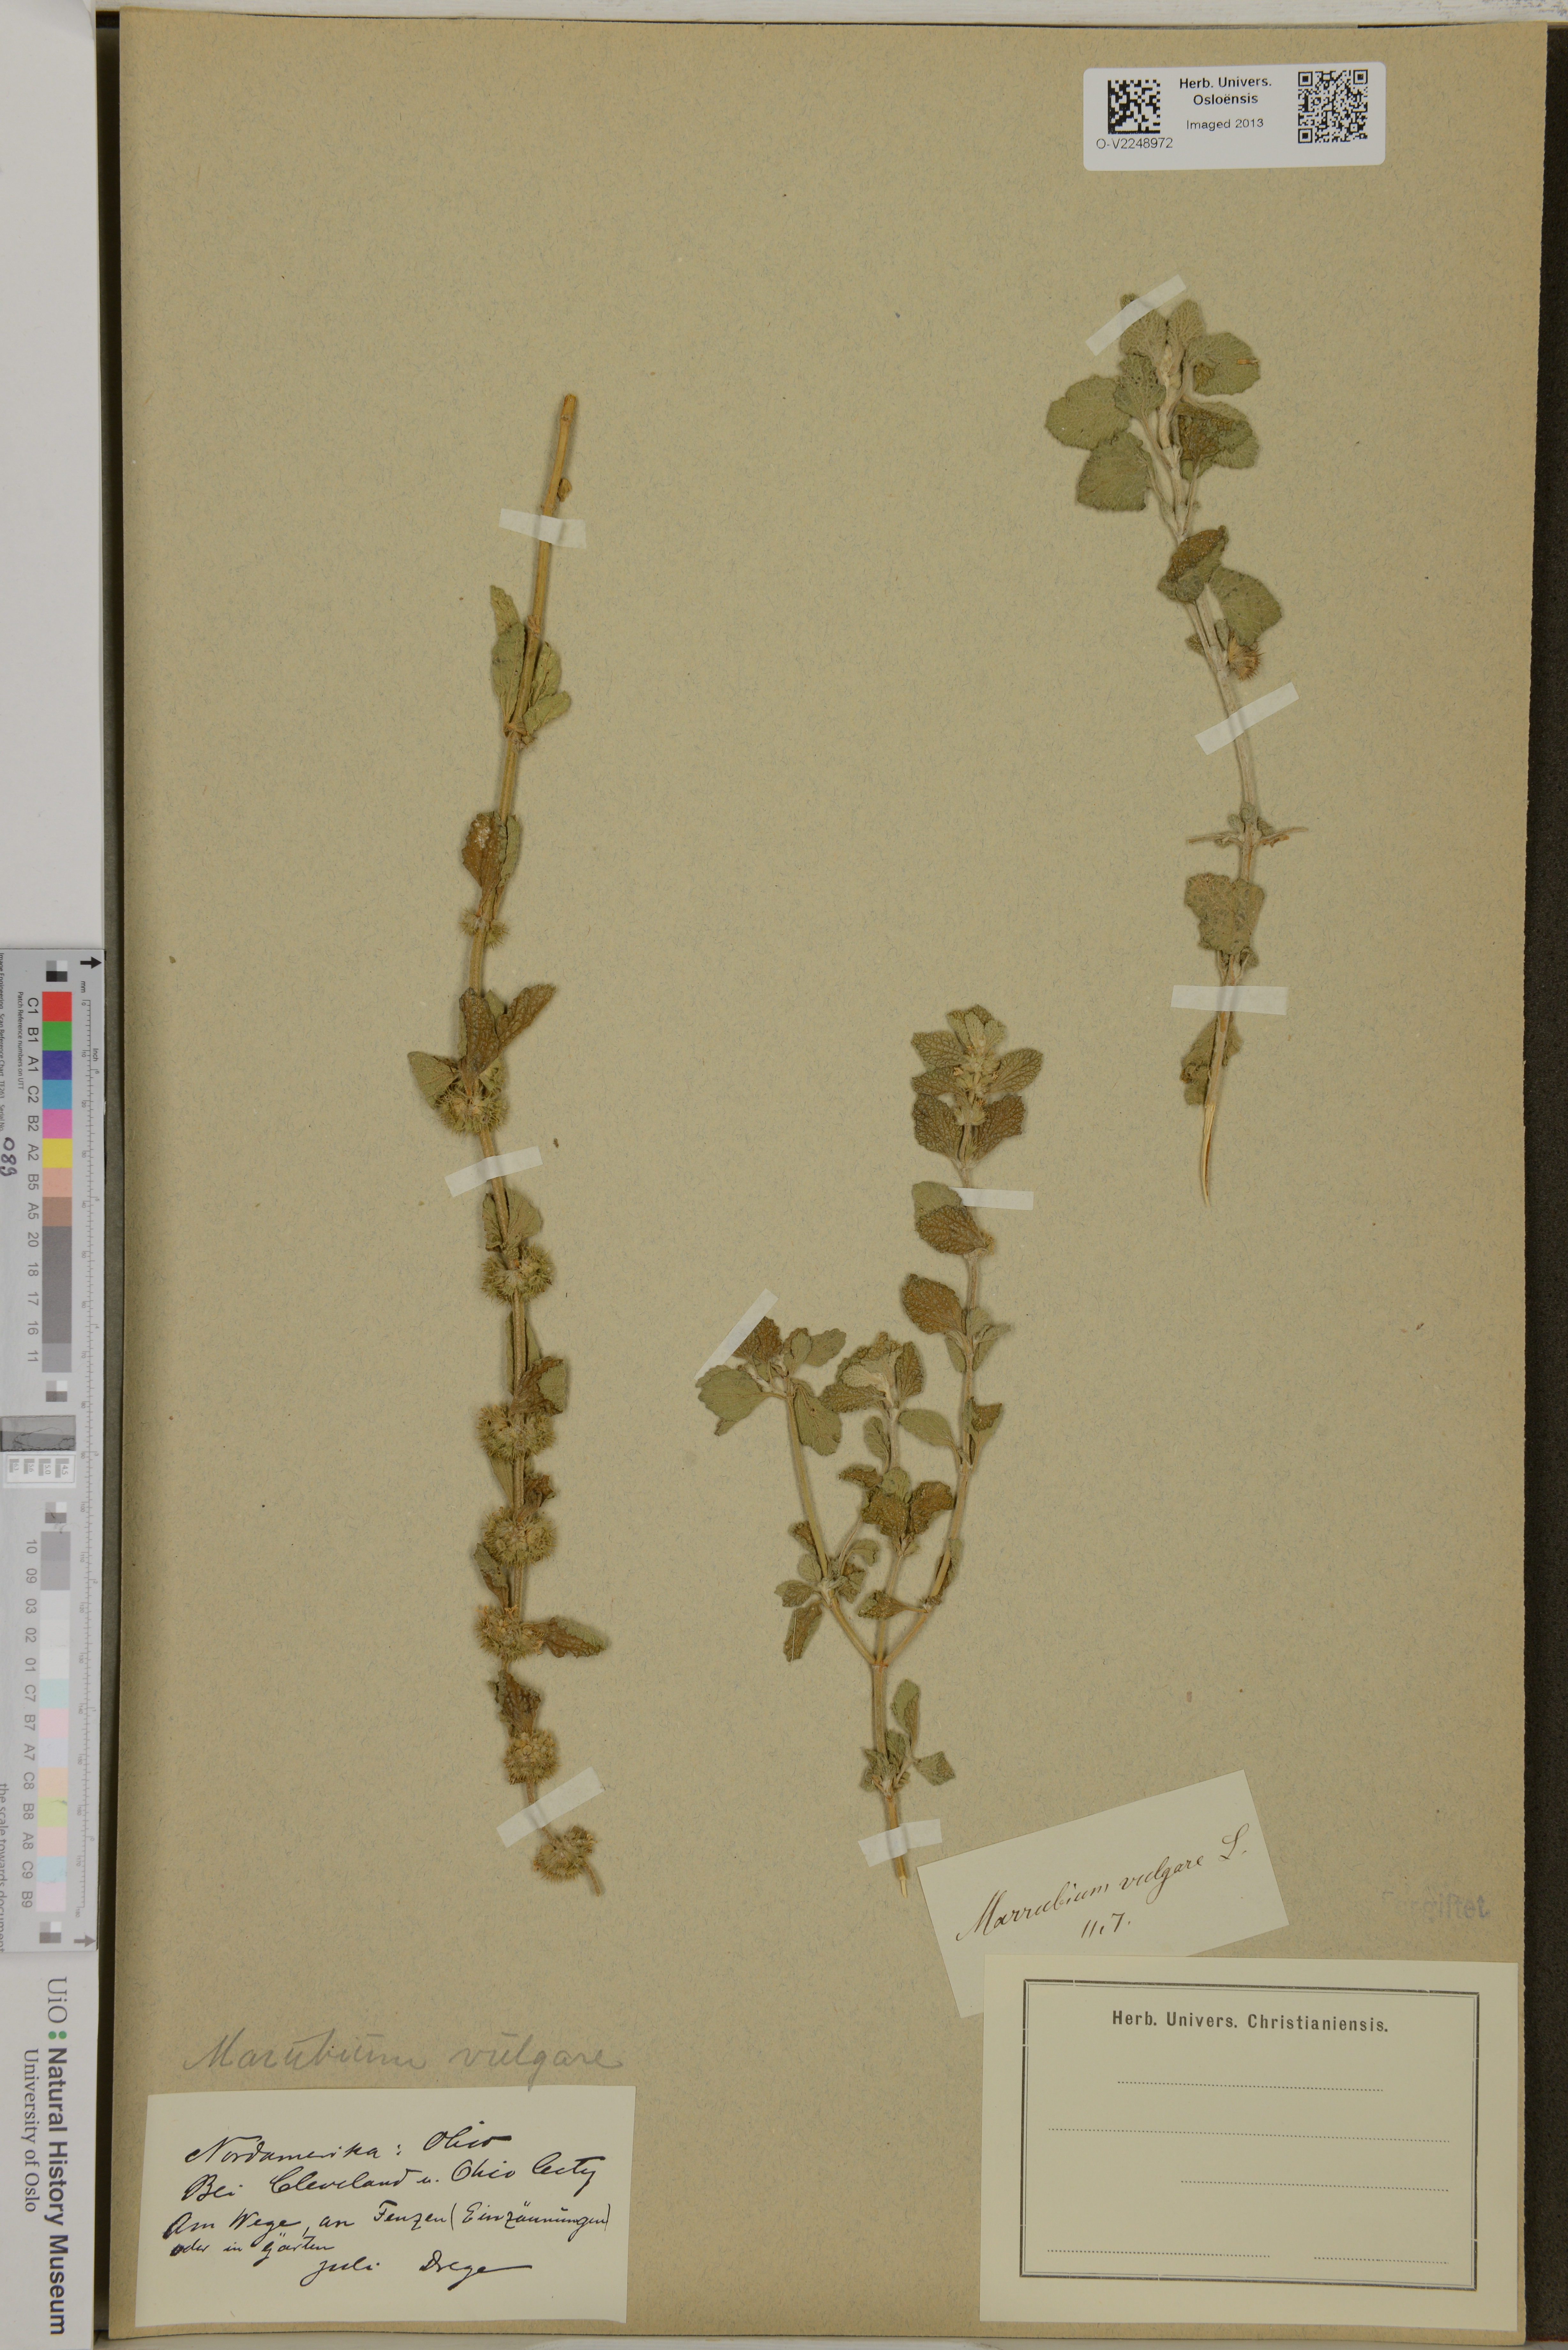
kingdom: Plantae
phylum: Tracheophyta
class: Magnoliopsida
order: Lamiales
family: Lamiaceae
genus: Marrubium
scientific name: Marrubium vulgare
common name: Horehound
